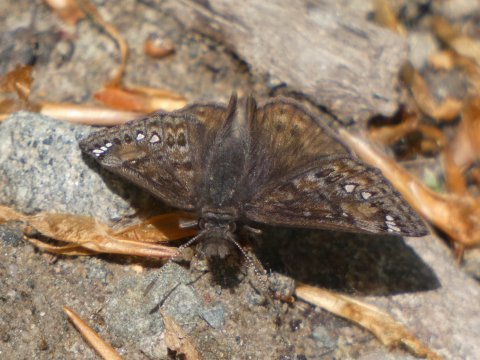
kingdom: Animalia
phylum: Arthropoda
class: Insecta
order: Lepidoptera
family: Hesperiidae
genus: Gesta
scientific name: Gesta
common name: Juvenal's Duskywing
